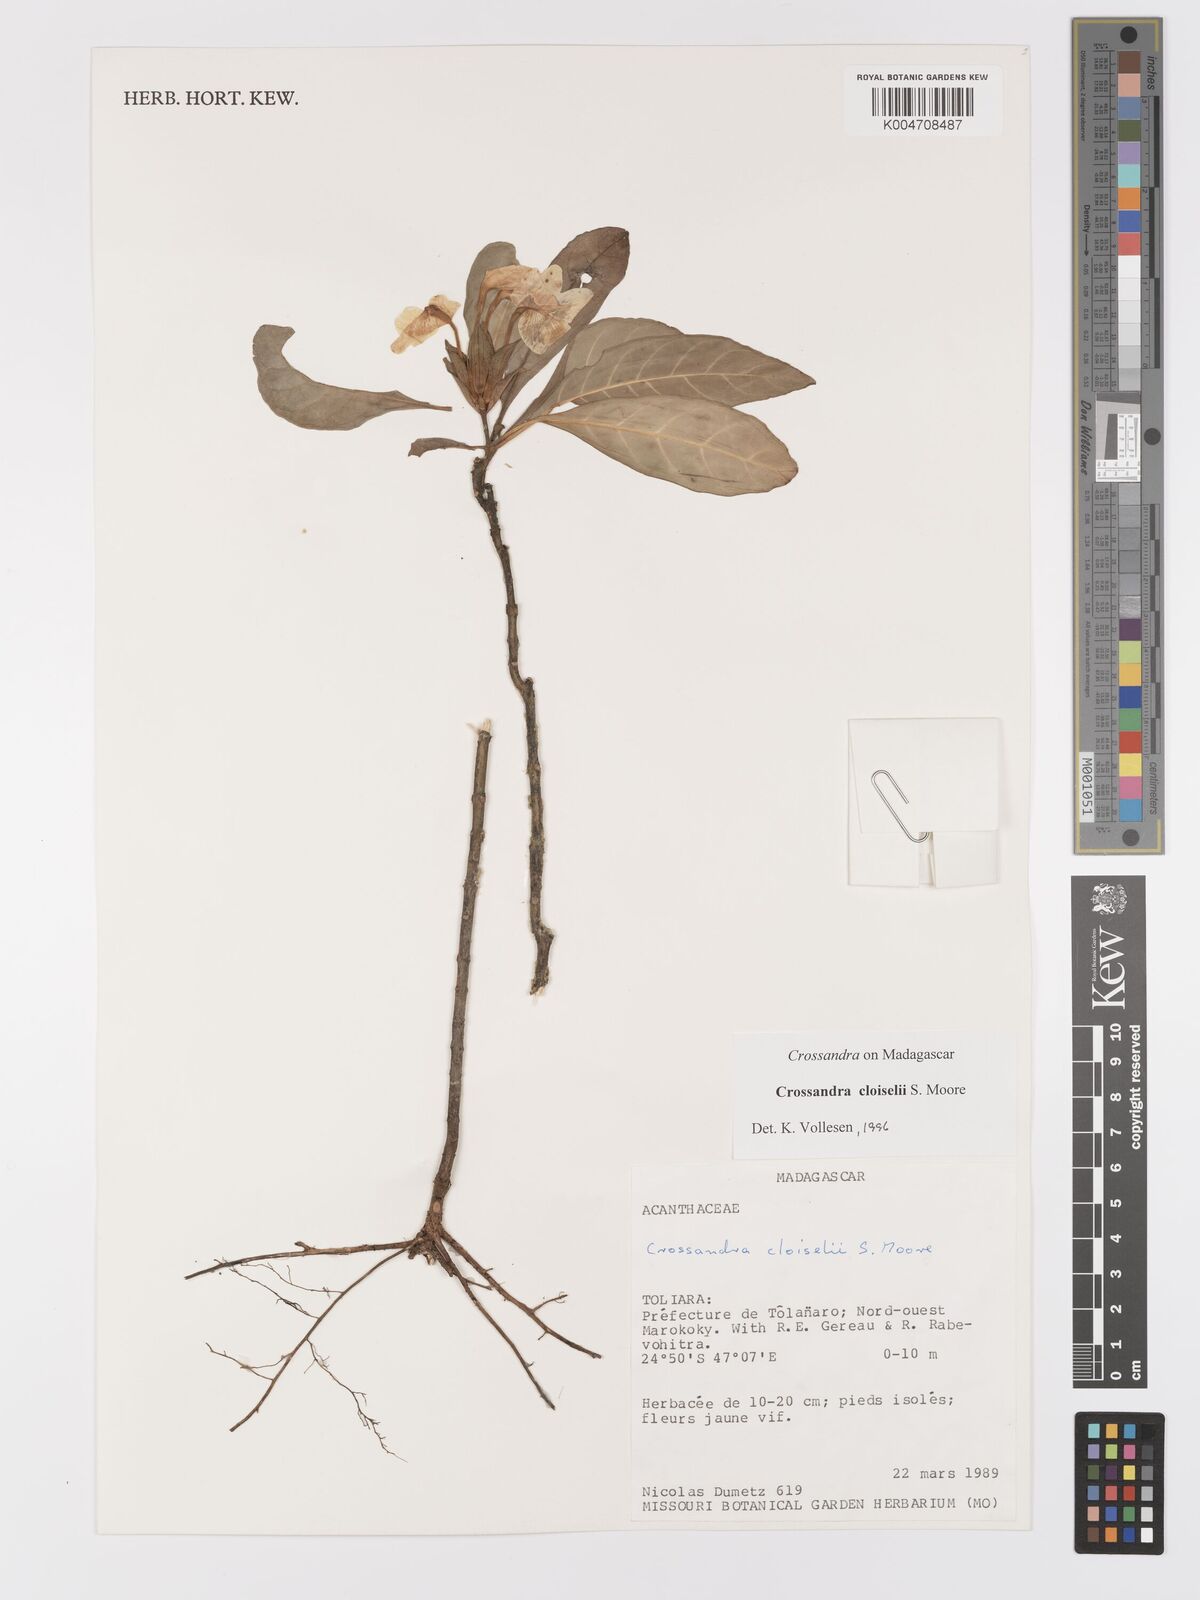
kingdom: Plantae
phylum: Tracheophyta
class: Magnoliopsida
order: Lamiales
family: Acanthaceae
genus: Crossandra
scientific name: Crossandra cloiselii
